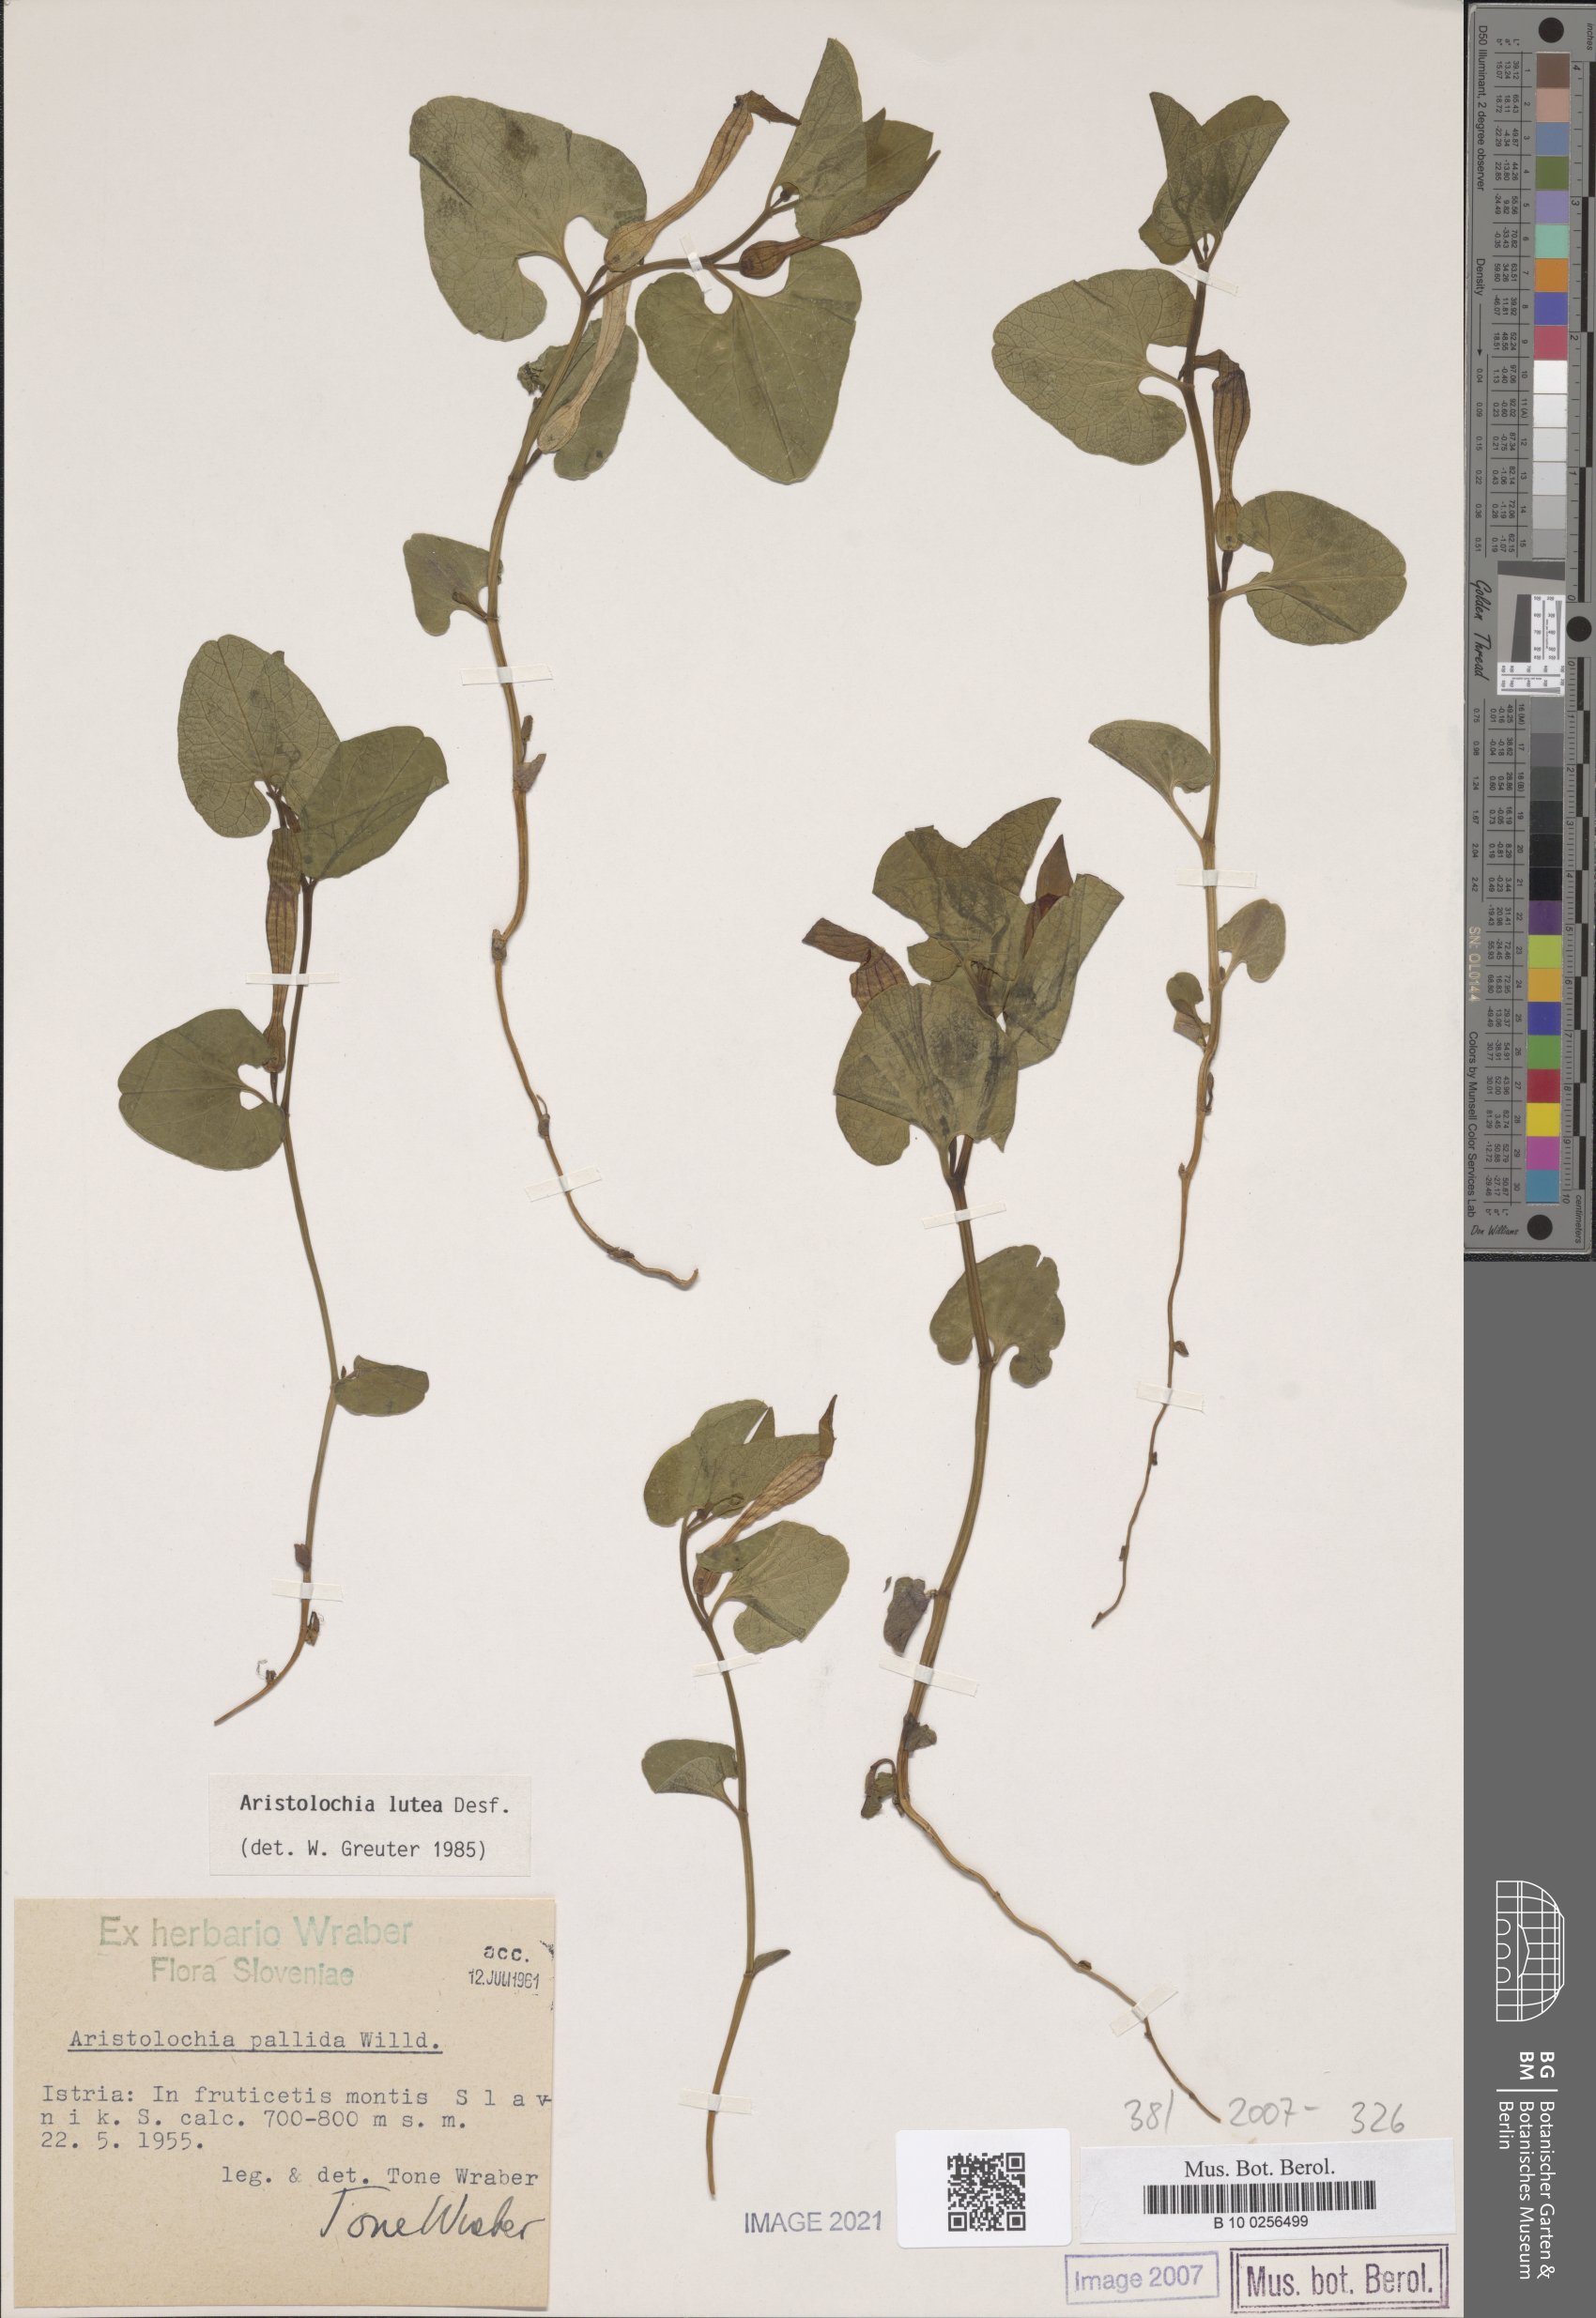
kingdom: Plantae
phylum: Tracheophyta
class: Magnoliopsida
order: Piperales
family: Aristolochiaceae
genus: Aristolochia
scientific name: Aristolochia lutea
